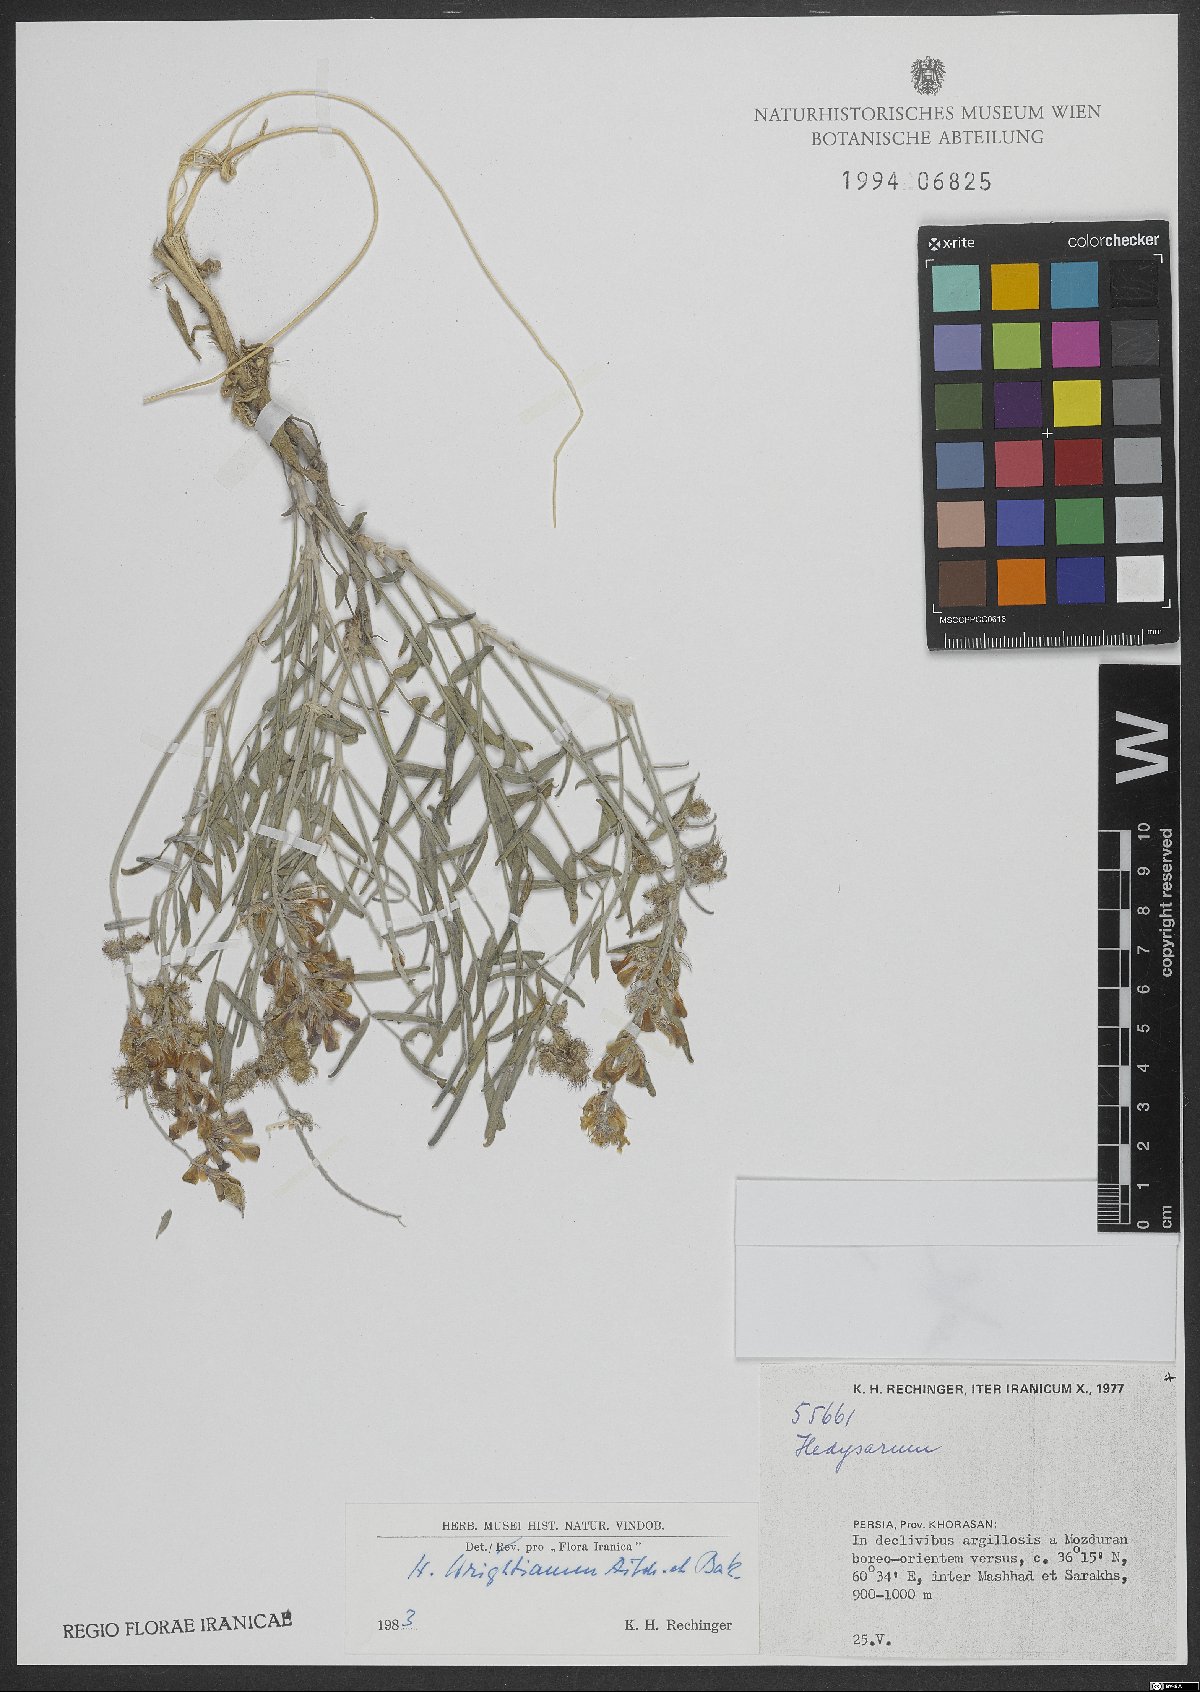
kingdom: Plantae
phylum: Tracheophyta
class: Magnoliopsida
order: Fabales
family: Fabaceae
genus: Hedysarum
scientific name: Hedysarum micropterum
